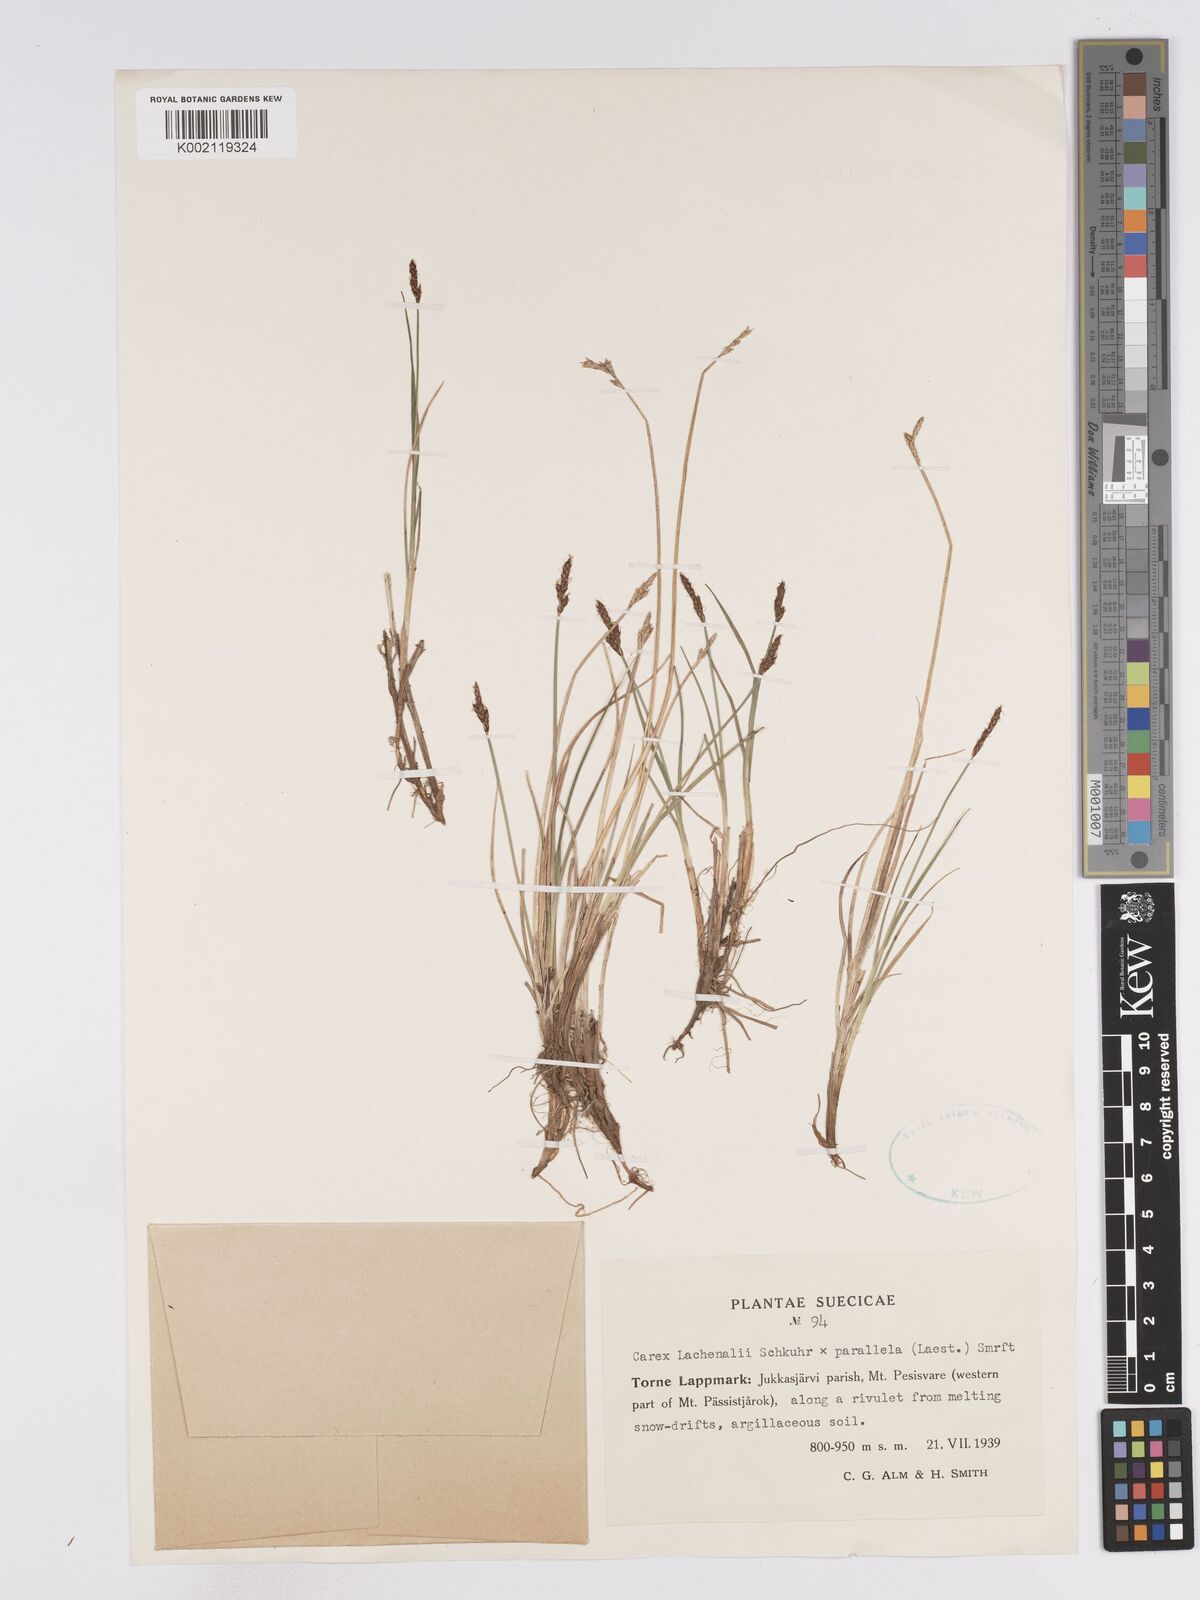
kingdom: Plantae
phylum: Tracheophyta
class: Liliopsida
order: Poales
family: Cyperaceae
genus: Carex
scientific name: Carex lachenalii
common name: Hare's-foot sedge
